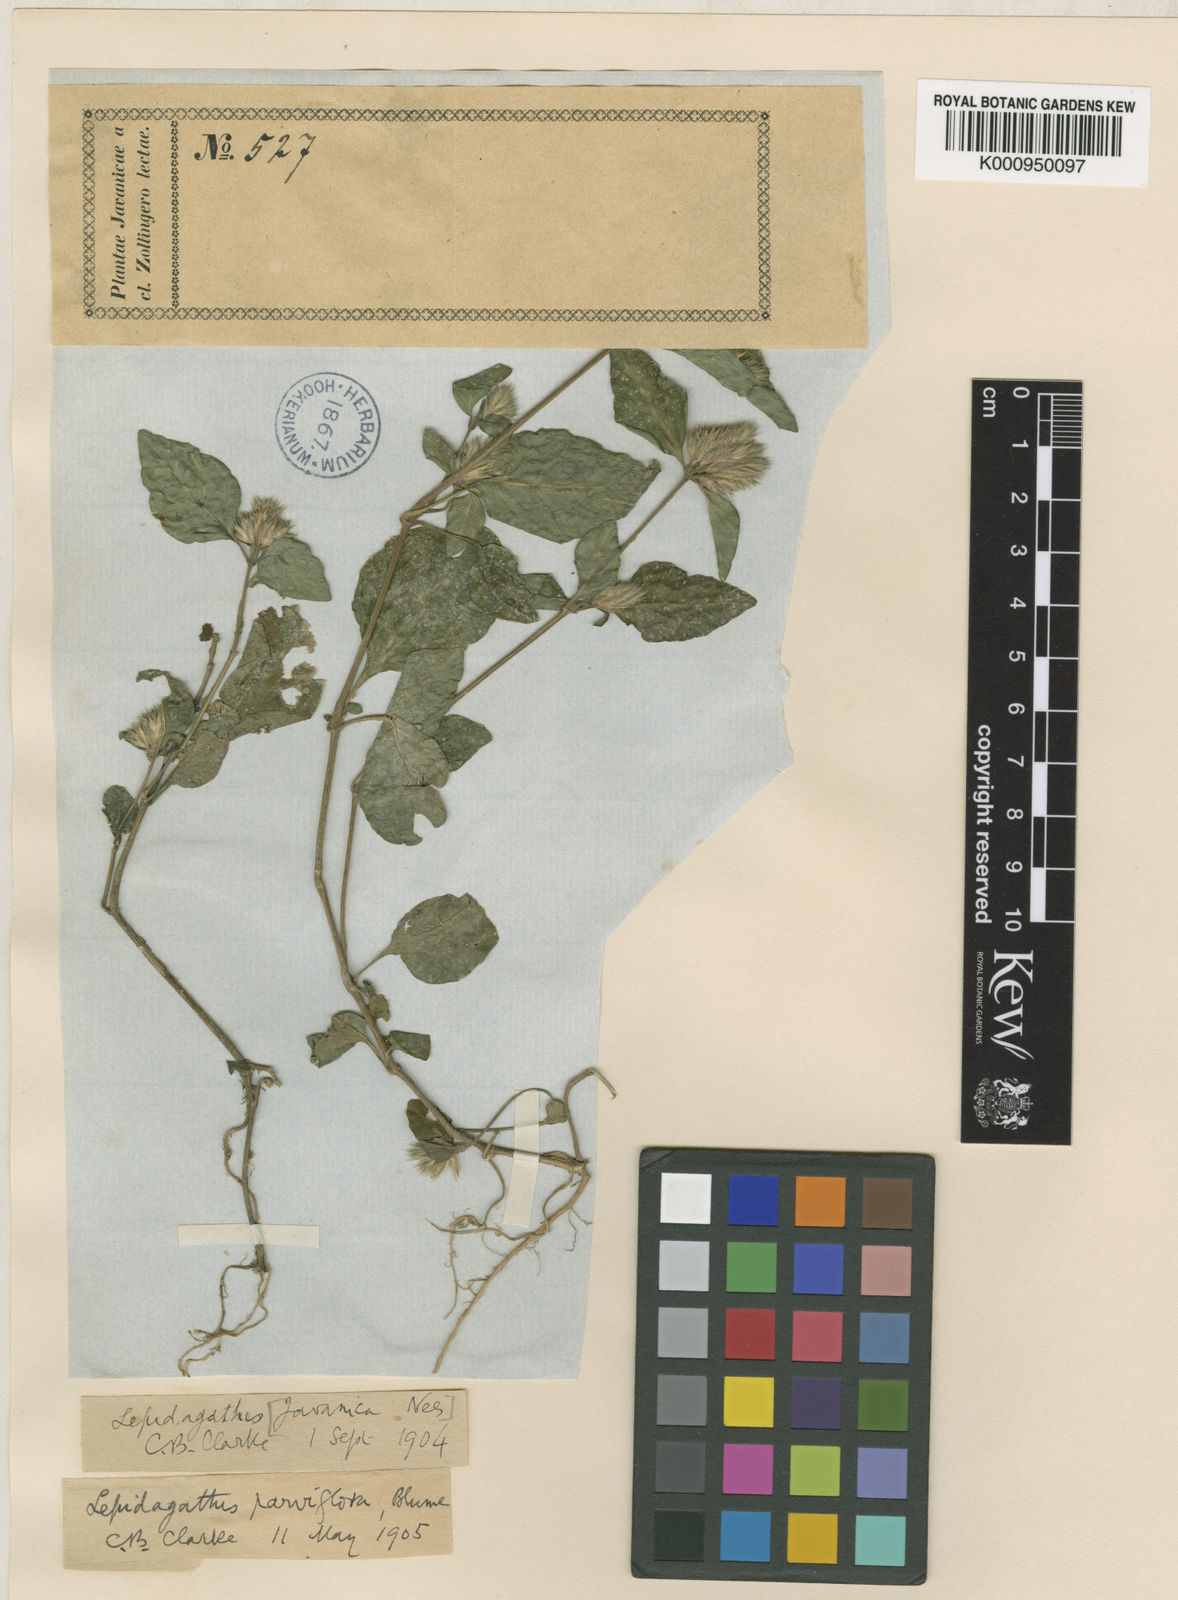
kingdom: Plantae
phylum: Tracheophyta
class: Magnoliopsida
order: Lamiales
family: Acanthaceae
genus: Lepidagathis
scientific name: Lepidagathis parviflora
